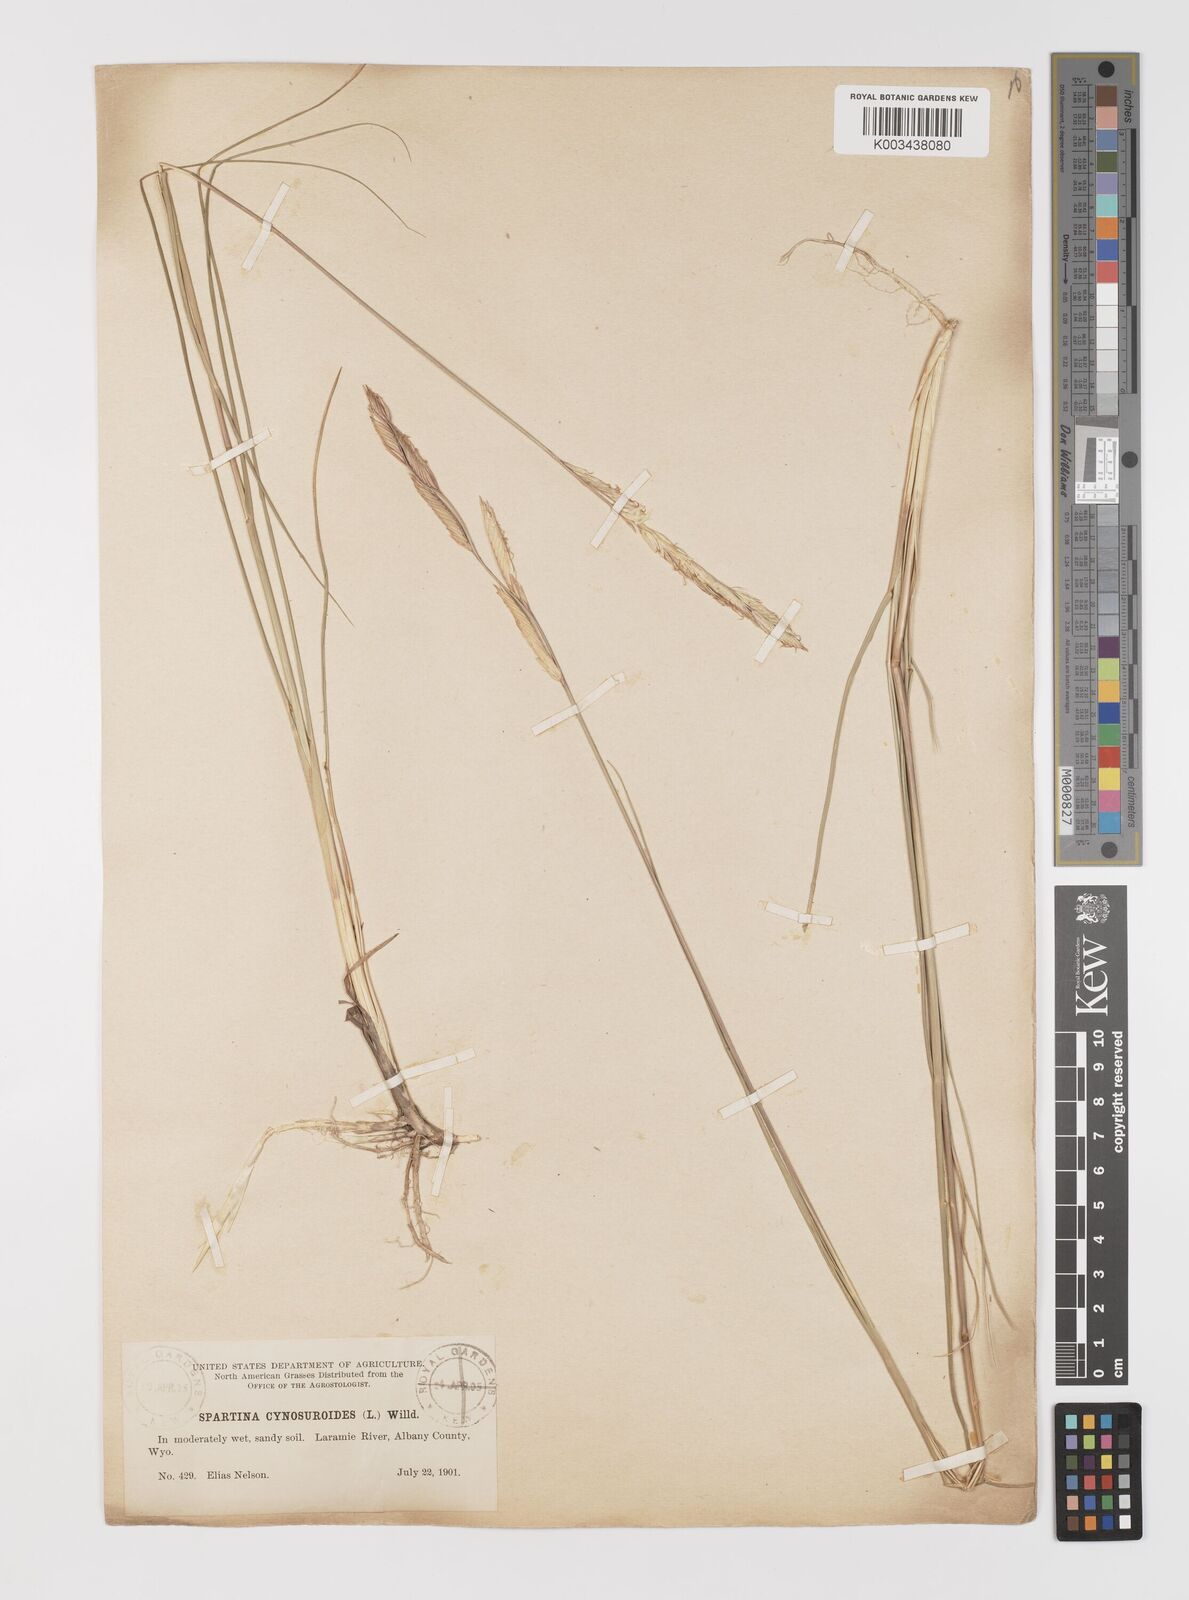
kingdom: Plantae
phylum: Tracheophyta
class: Liliopsida
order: Poales
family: Poaceae
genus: Sporobolus
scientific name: Sporobolus hookerianus
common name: Alkali cordgrass
